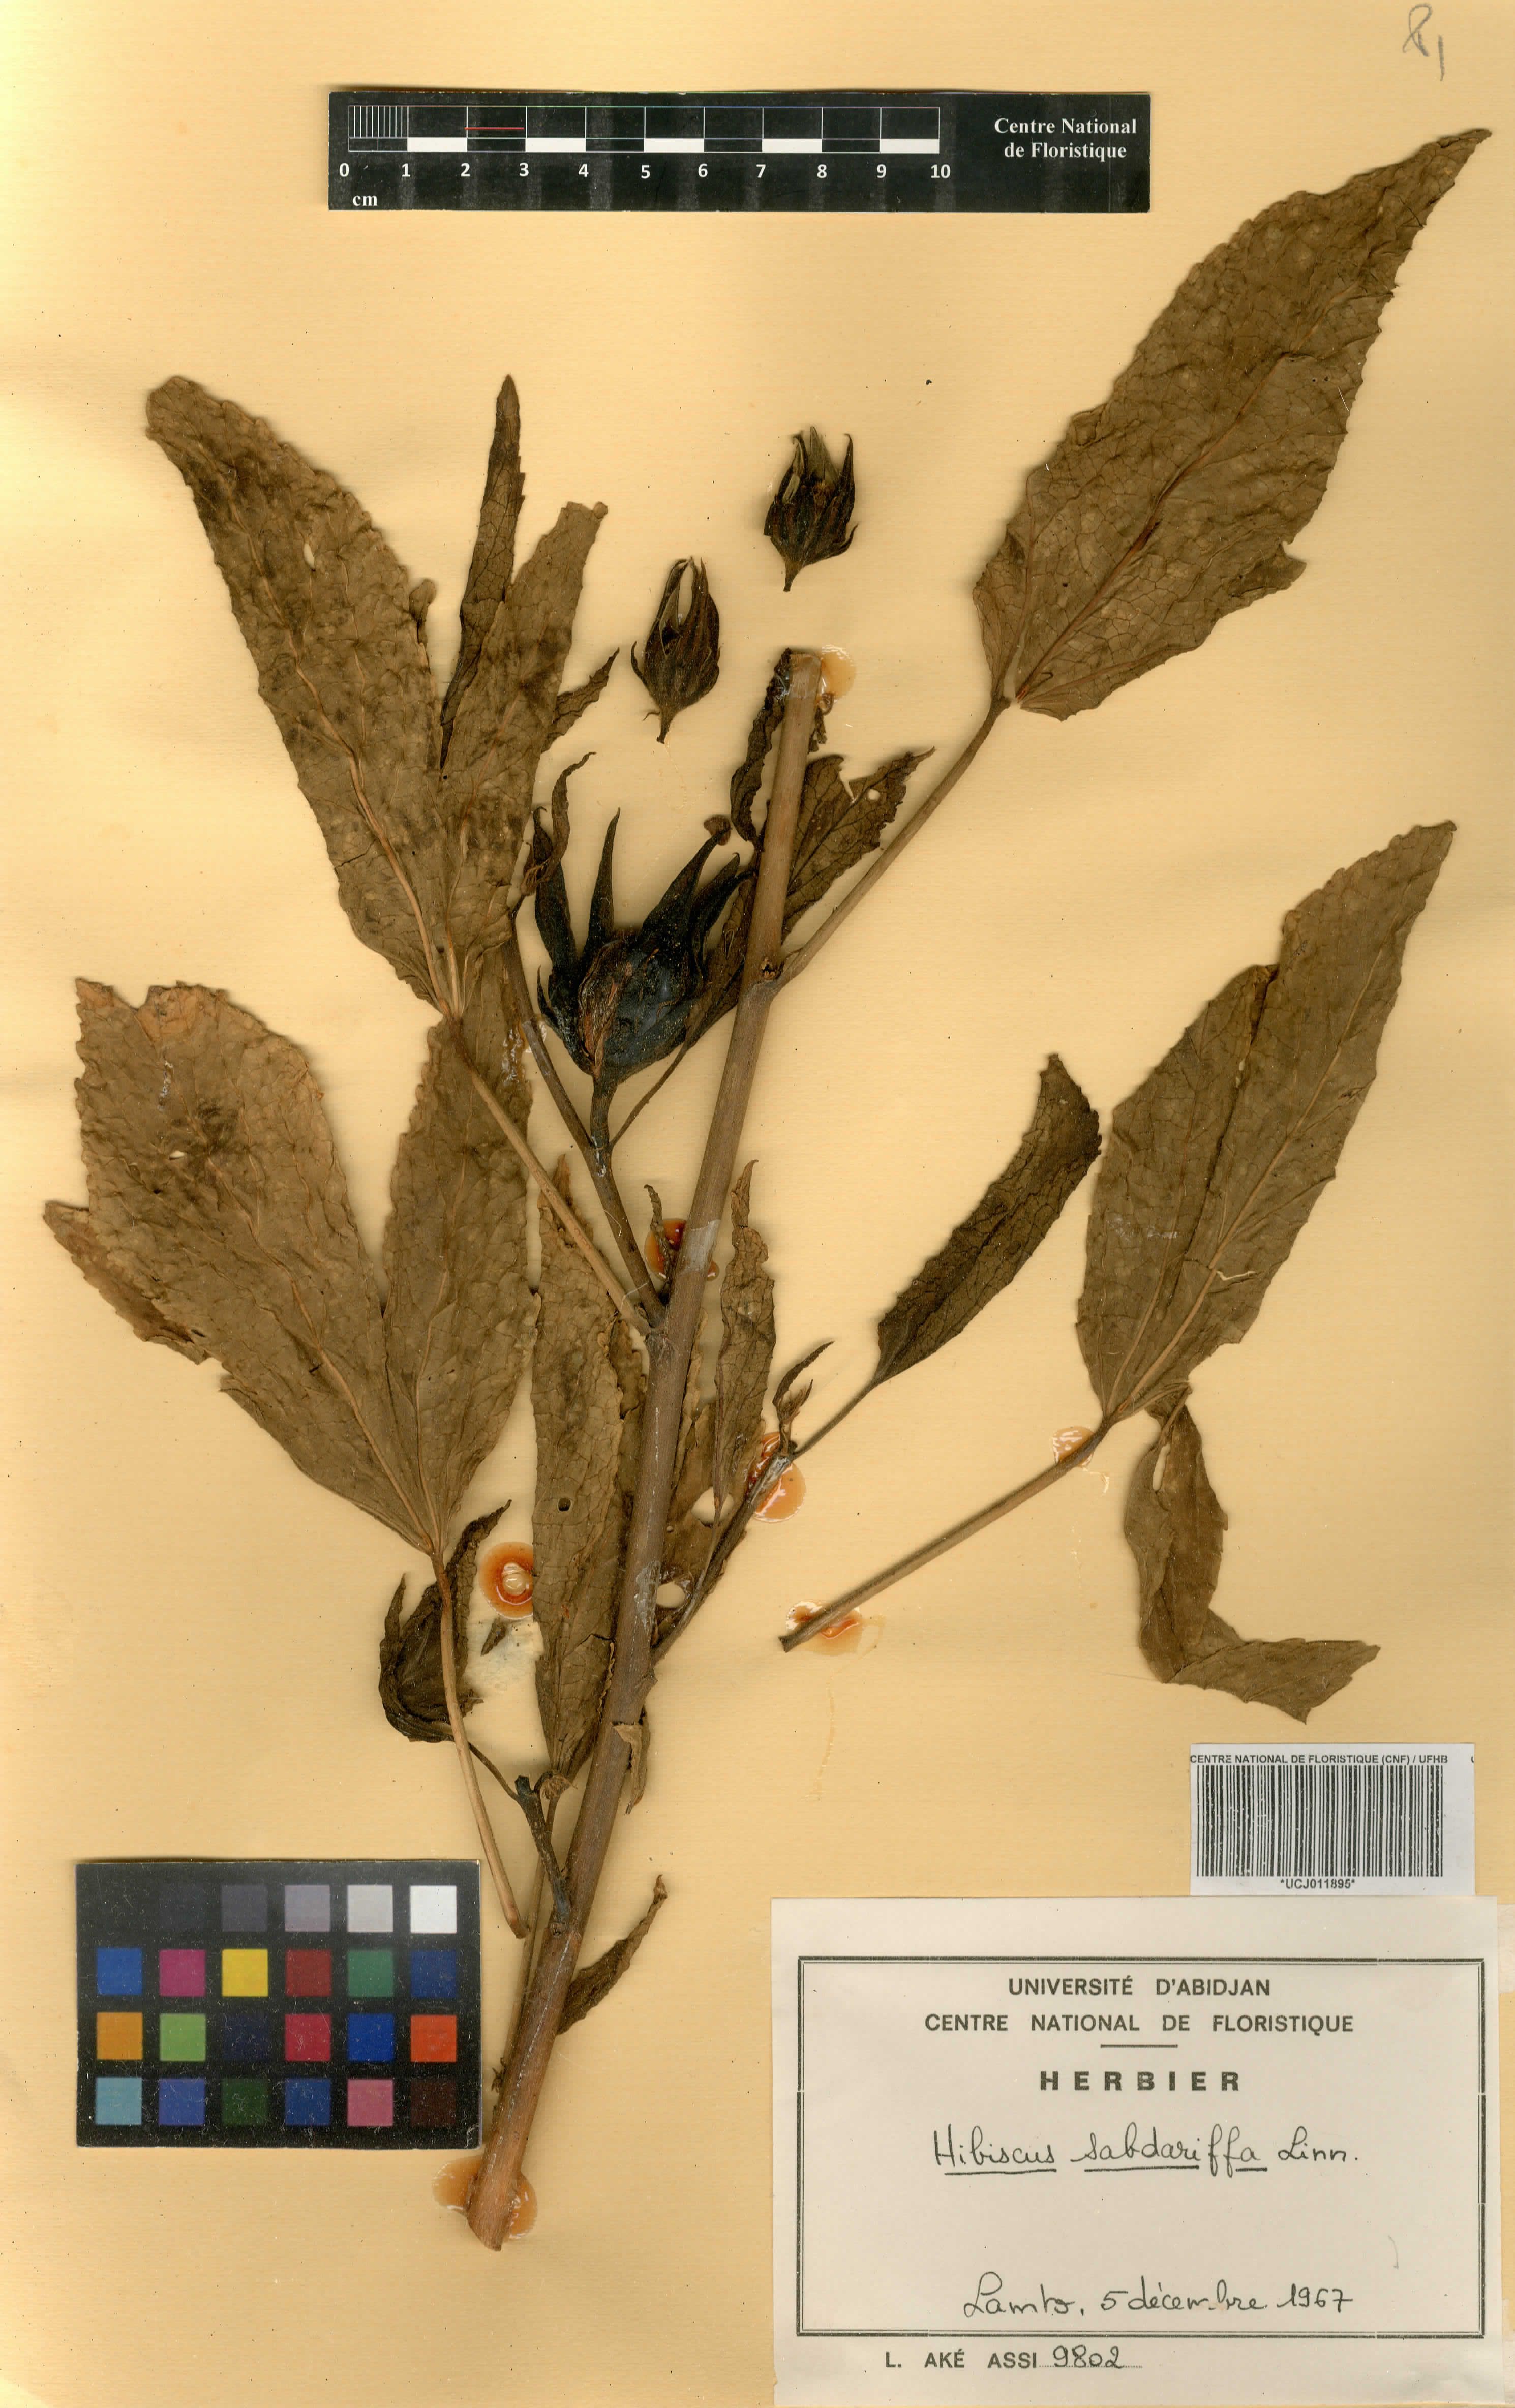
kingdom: Plantae
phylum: Tracheophyta
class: Magnoliopsida
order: Malvales
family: Malvaceae
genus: Hibiscus
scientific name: Hibiscus sabdariffa
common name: Roselle
